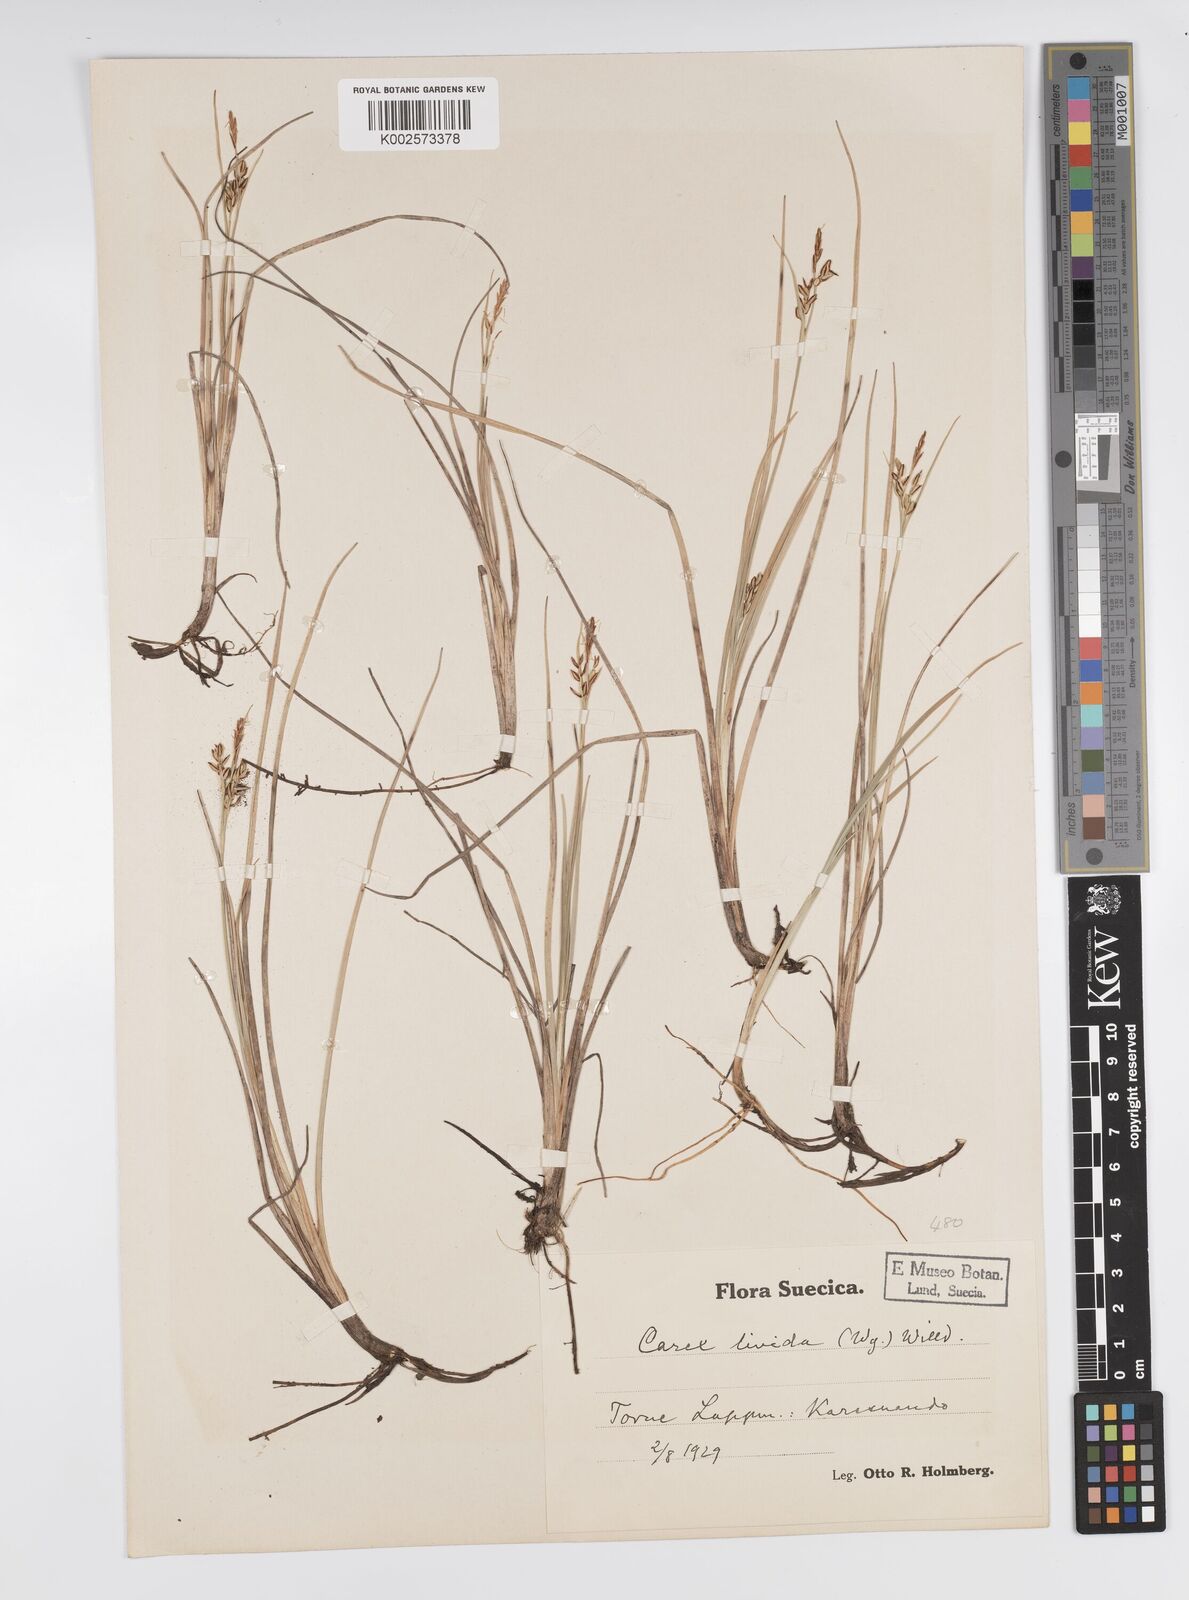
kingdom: Plantae
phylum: Tracheophyta
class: Liliopsida
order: Poales
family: Cyperaceae
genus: Carex
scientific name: Carex livida
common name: Livid sedge
